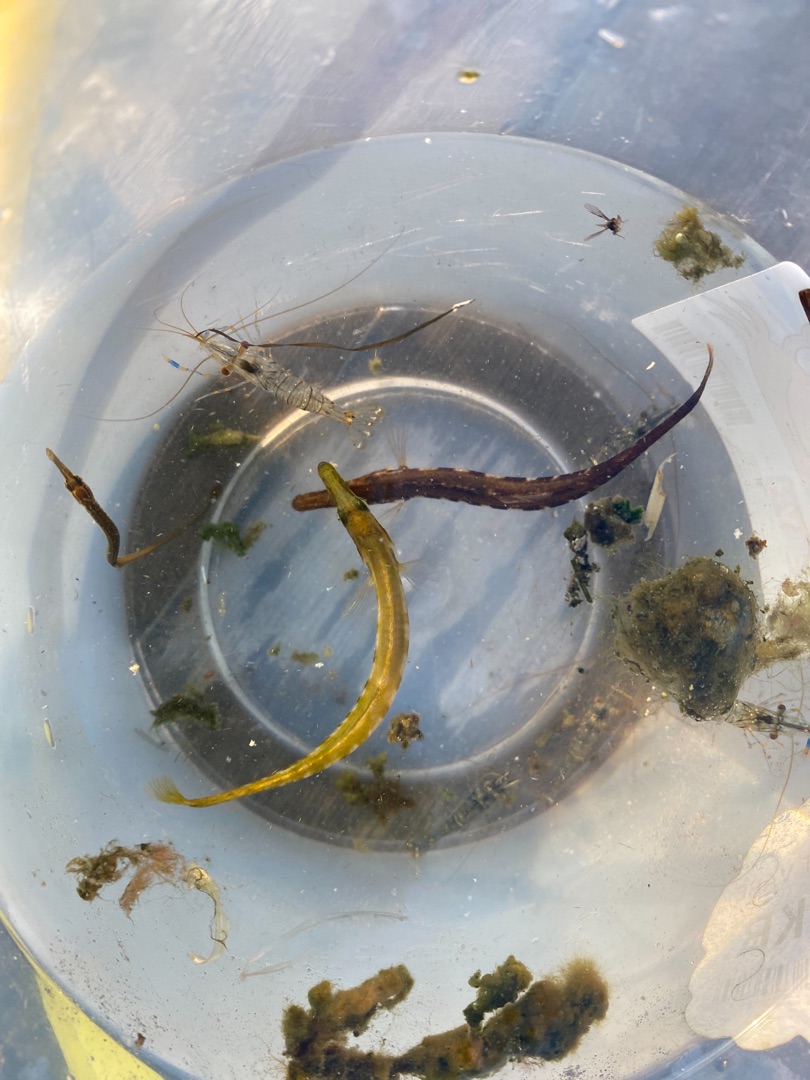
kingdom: Animalia
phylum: Chordata
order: Gasterosteiformes
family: Gasterosteidae
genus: Spinachia
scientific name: Spinachia spinachia
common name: Tangsnarre
